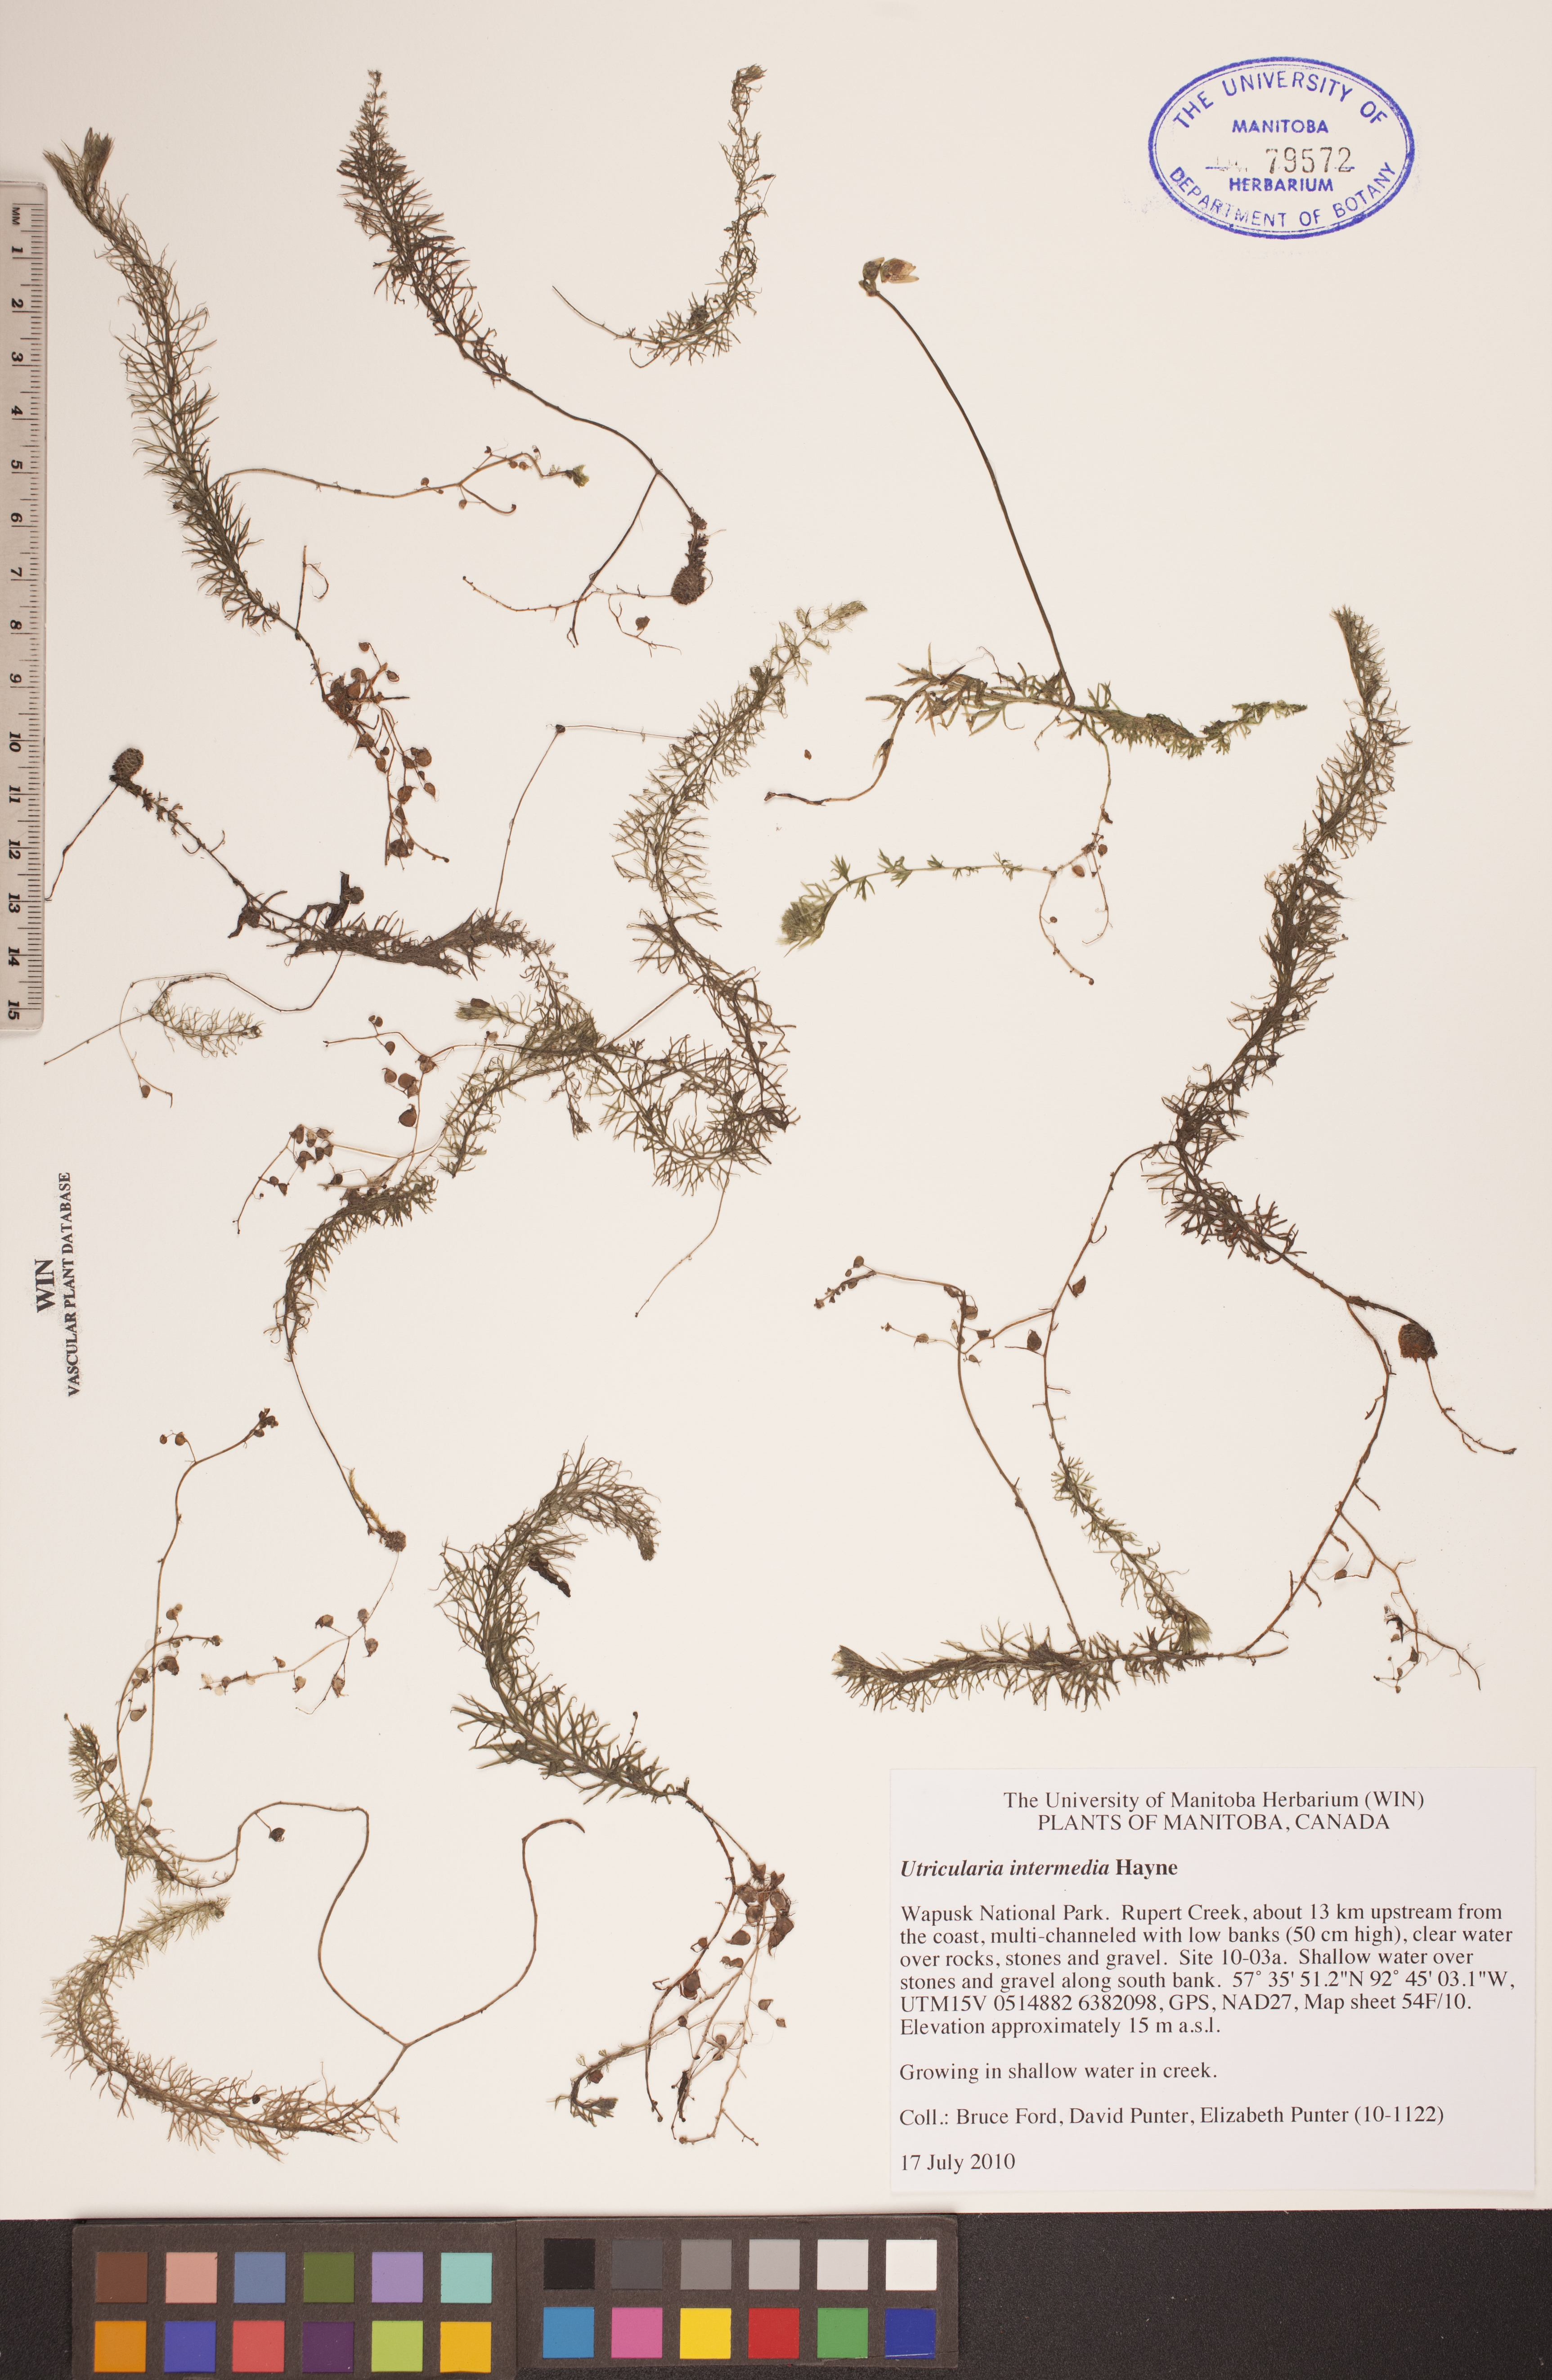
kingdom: Plantae
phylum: Tracheophyta
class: Magnoliopsida
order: Lamiales
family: Lentibulariaceae
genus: Utricularia
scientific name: Utricularia intermedia
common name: Intermediate bladderwort
